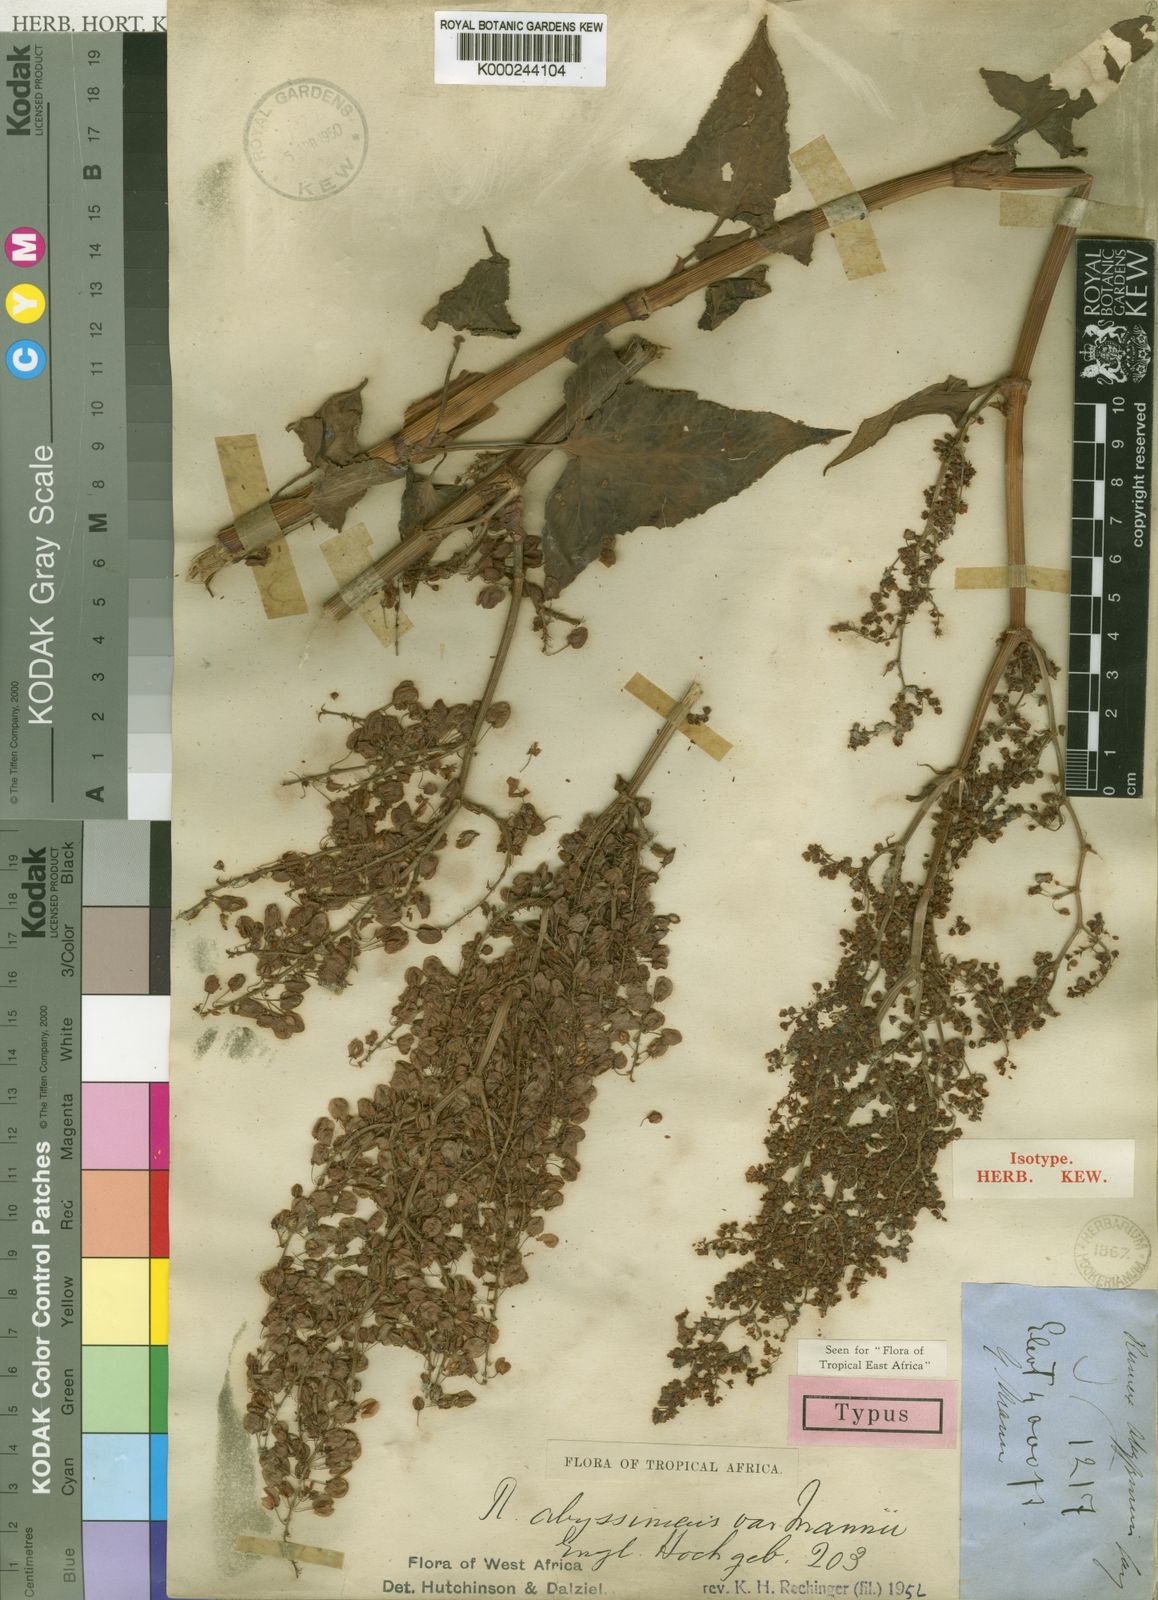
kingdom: Plantae
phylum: Tracheophyta
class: Magnoliopsida
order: Caryophyllales
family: Polygonaceae
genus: Rumex
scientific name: Rumex abyssinicus
